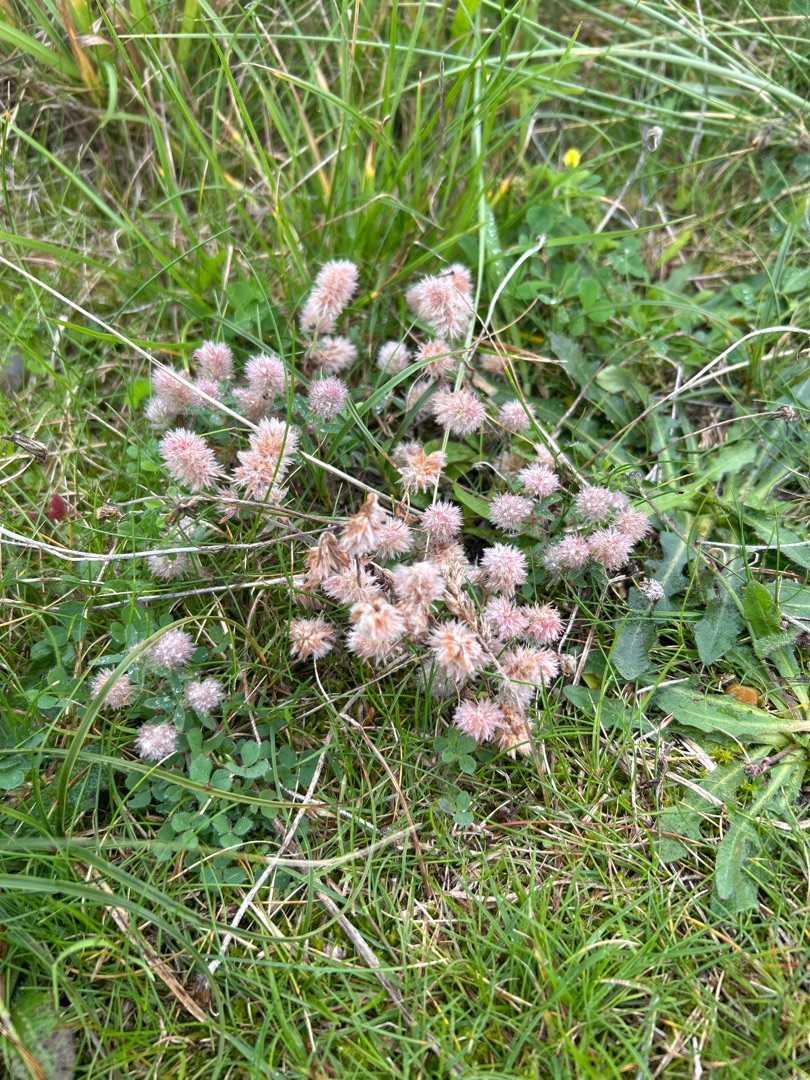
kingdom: Plantae
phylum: Tracheophyta
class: Magnoliopsida
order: Fabales
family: Fabaceae
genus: Trifolium
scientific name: Trifolium arvense
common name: Hare-kløver
